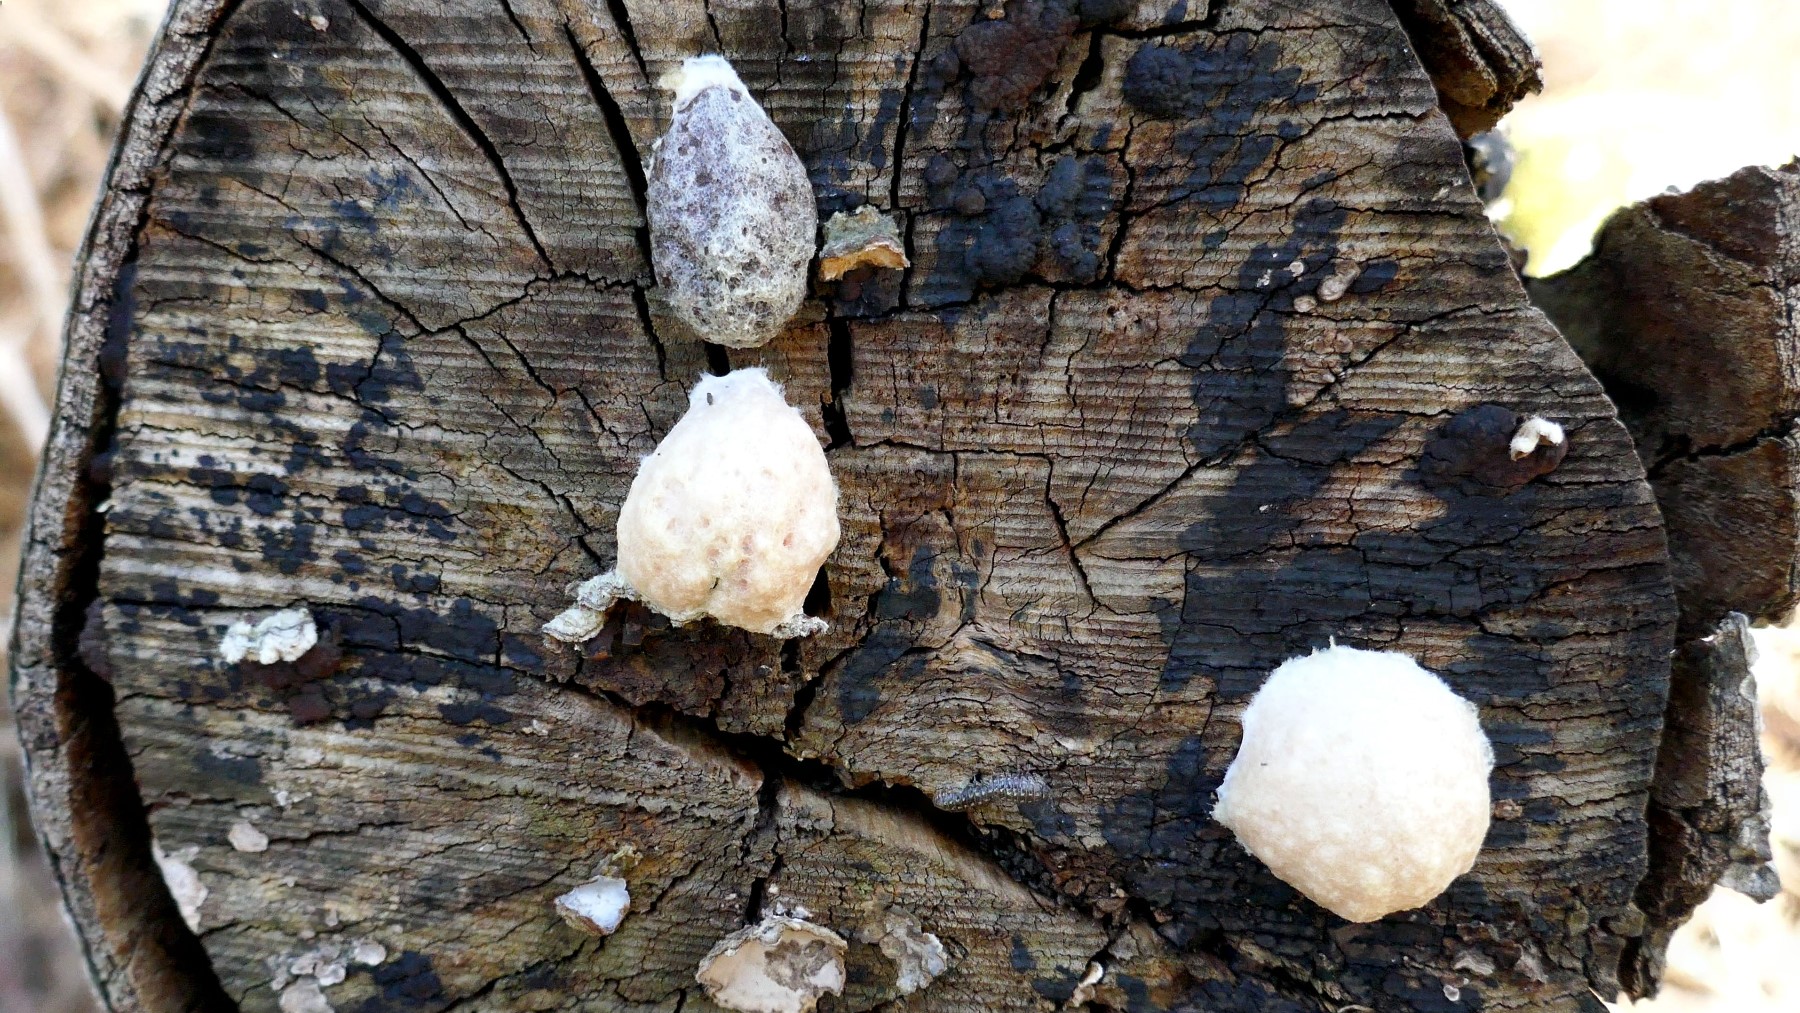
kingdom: Protozoa
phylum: Mycetozoa
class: Myxomycetes
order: Cribrariales
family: Tubiferaceae
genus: Reticularia
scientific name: Reticularia lycoperdon
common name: skinnende støvpude
